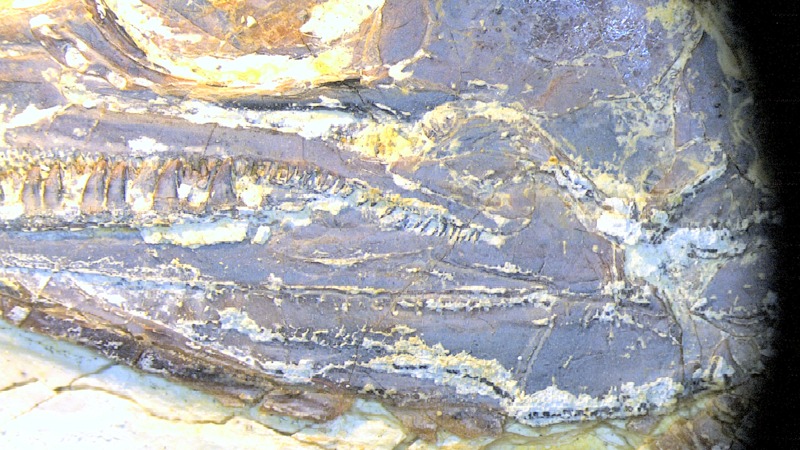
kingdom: Animalia
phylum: Chordata
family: Aspidorhynchidae
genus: Aspidorhynchus
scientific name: Aspidorhynchus sanzenbacheri
